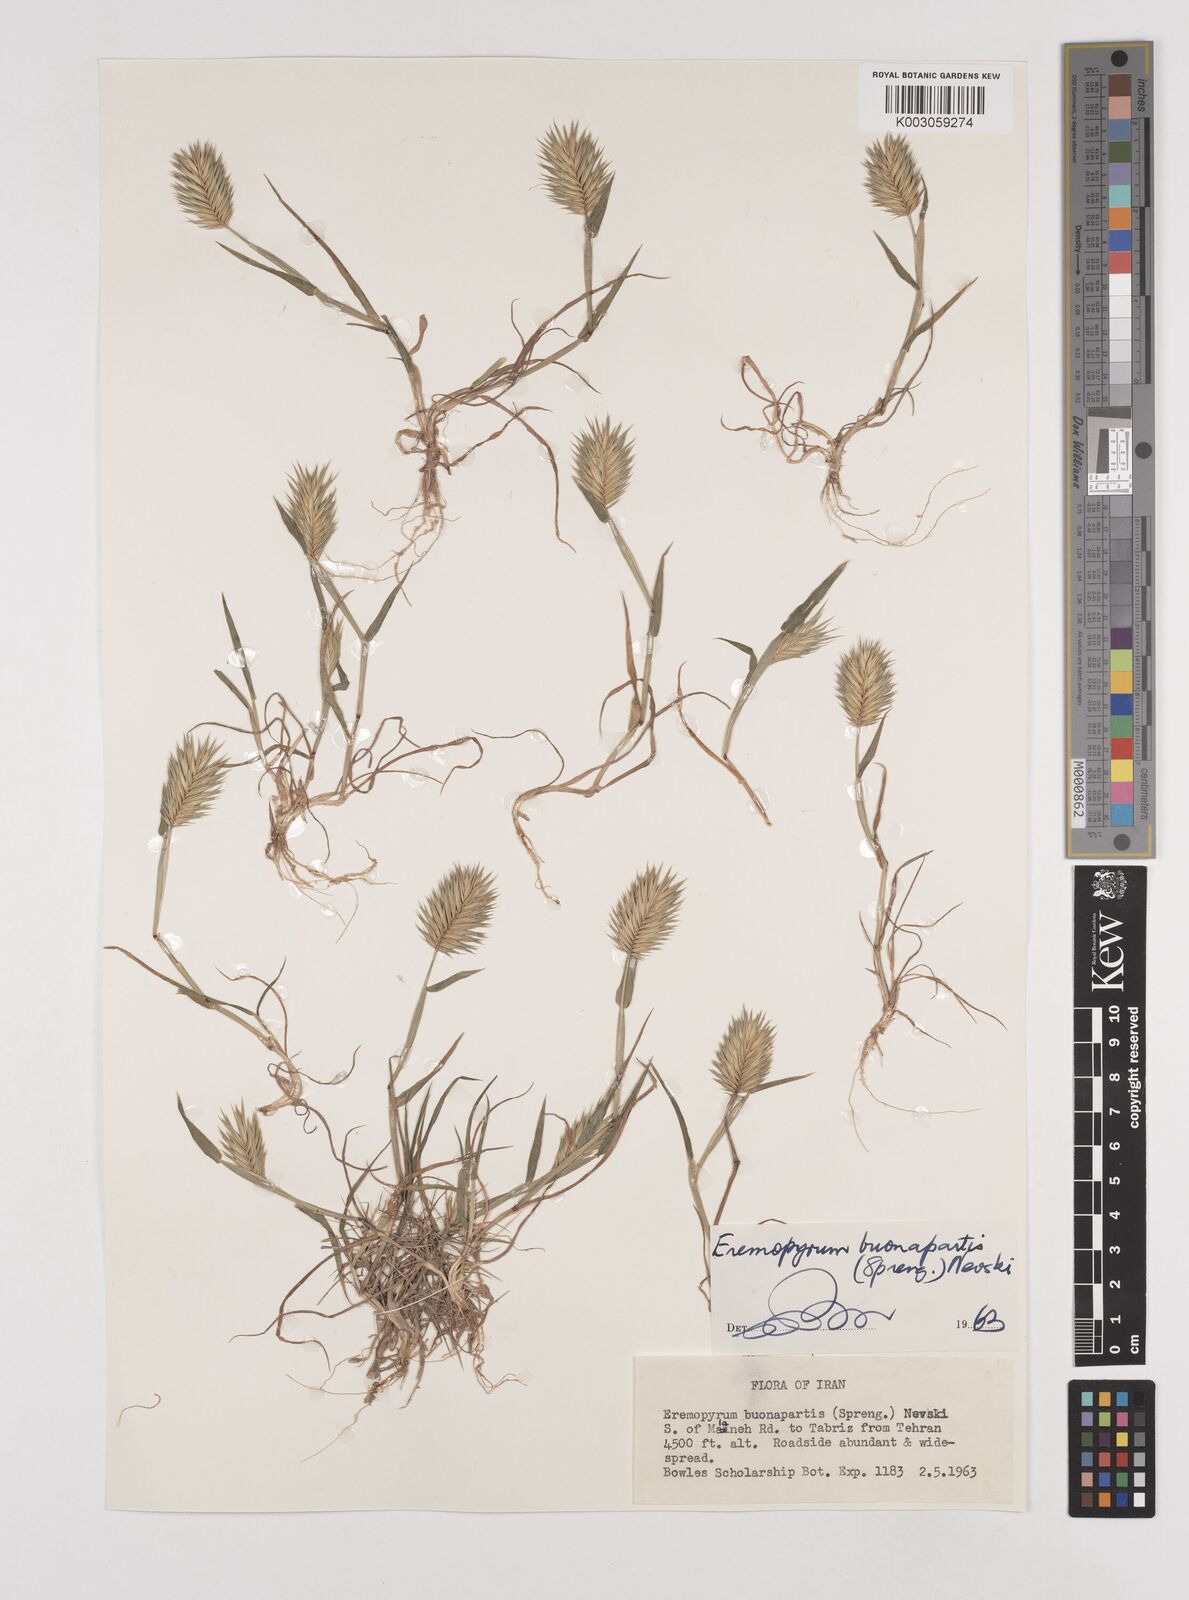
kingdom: Plantae
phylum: Tracheophyta
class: Liliopsida
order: Poales
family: Poaceae
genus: Eremopyrum
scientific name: Eremopyrum bonaepartis
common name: Tapertip false wheatgrass
